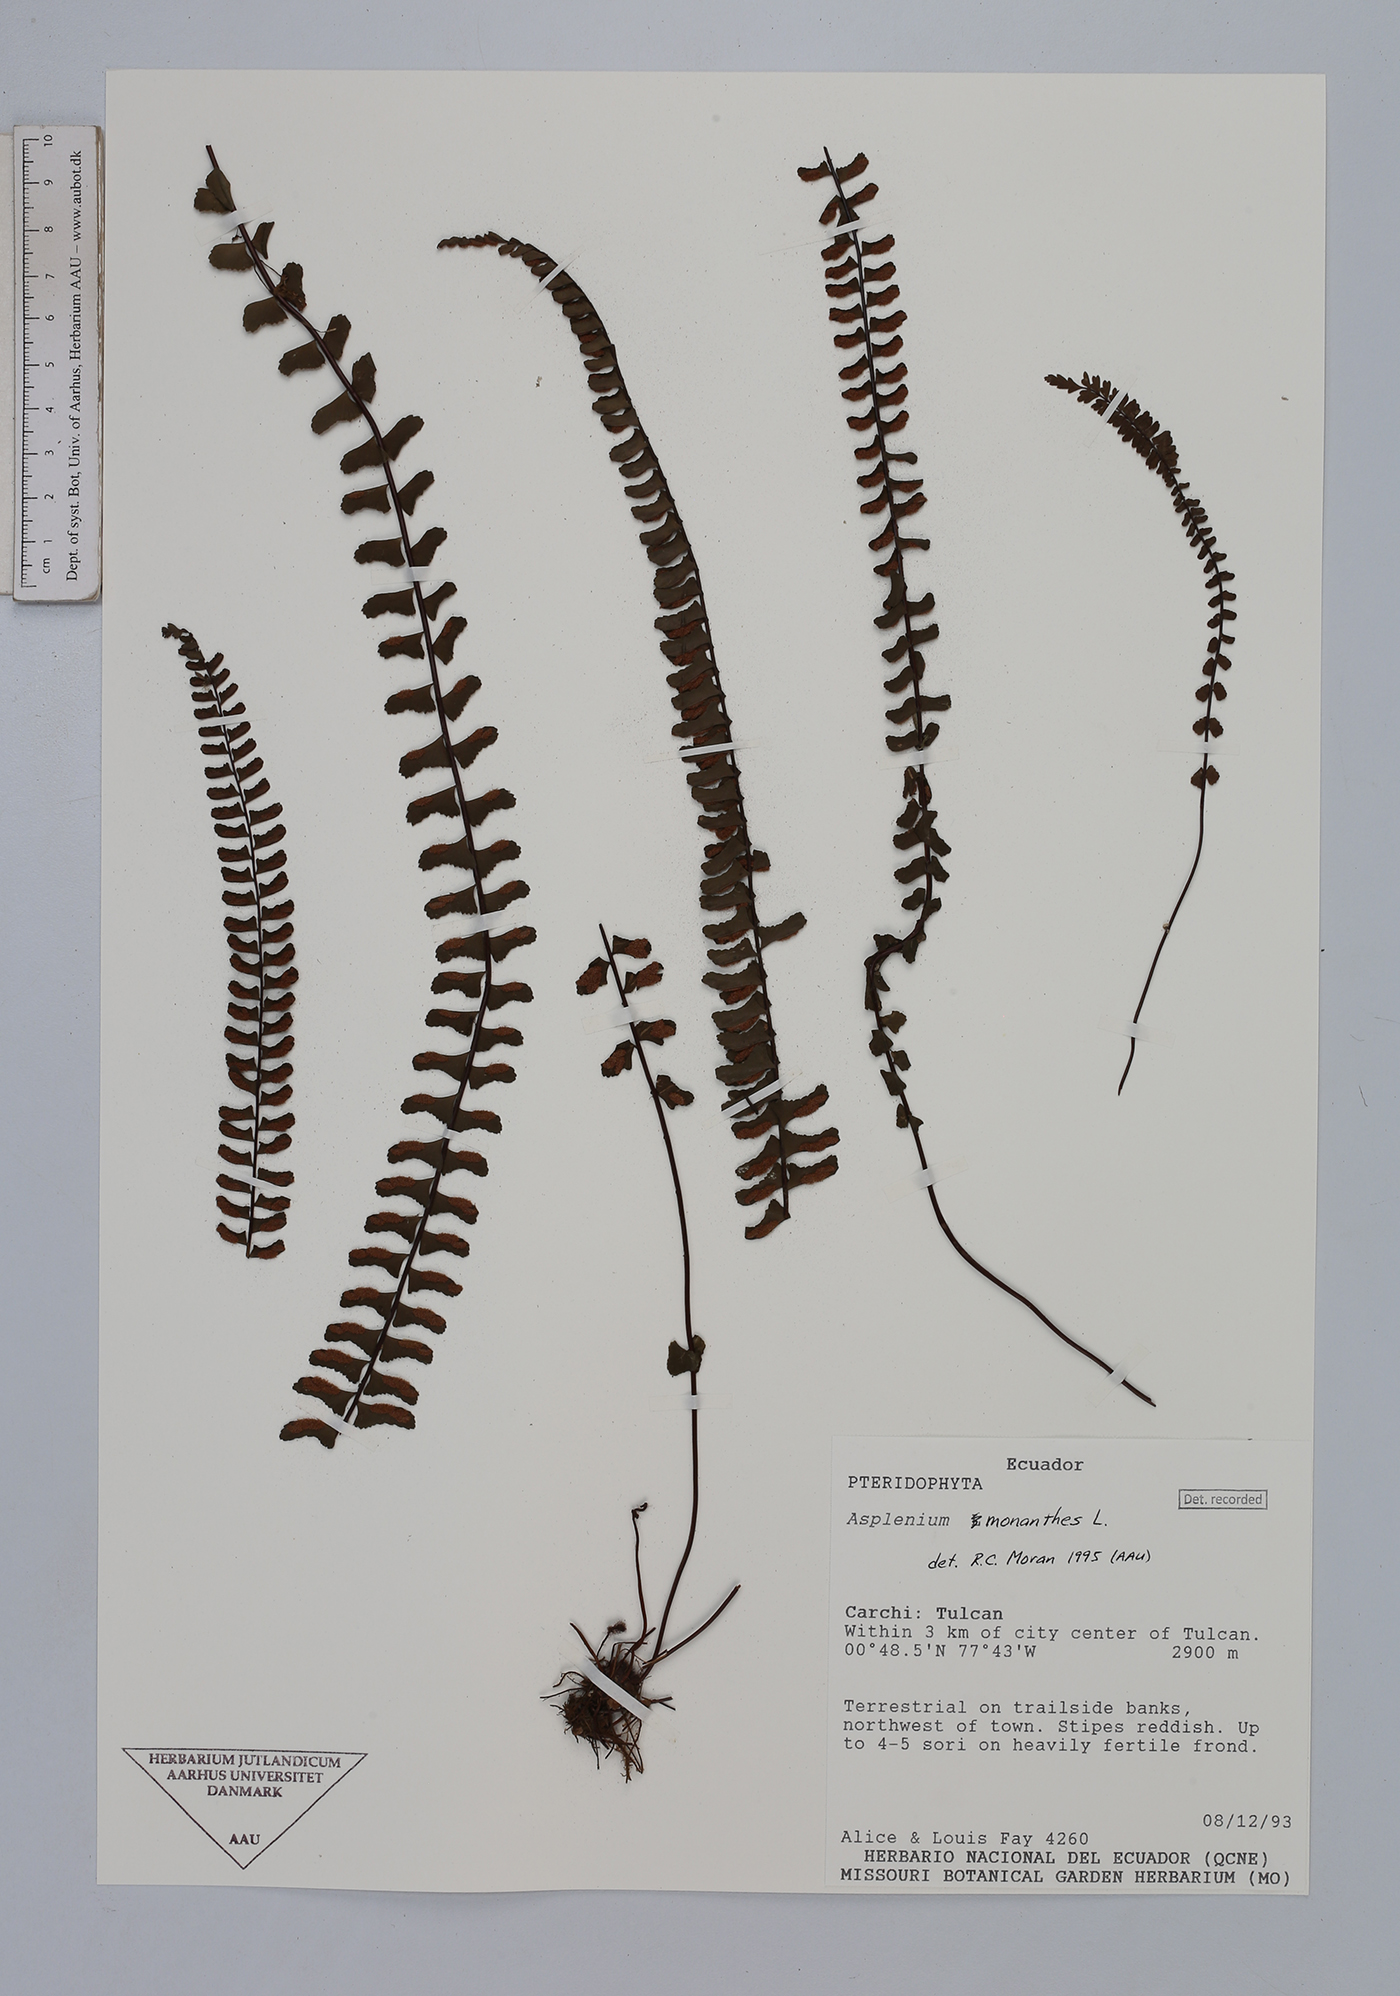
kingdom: Plantae
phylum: Tracheophyta
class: Polypodiopsida
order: Polypodiales
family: Aspleniaceae
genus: Asplenium
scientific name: Asplenium monanthes
